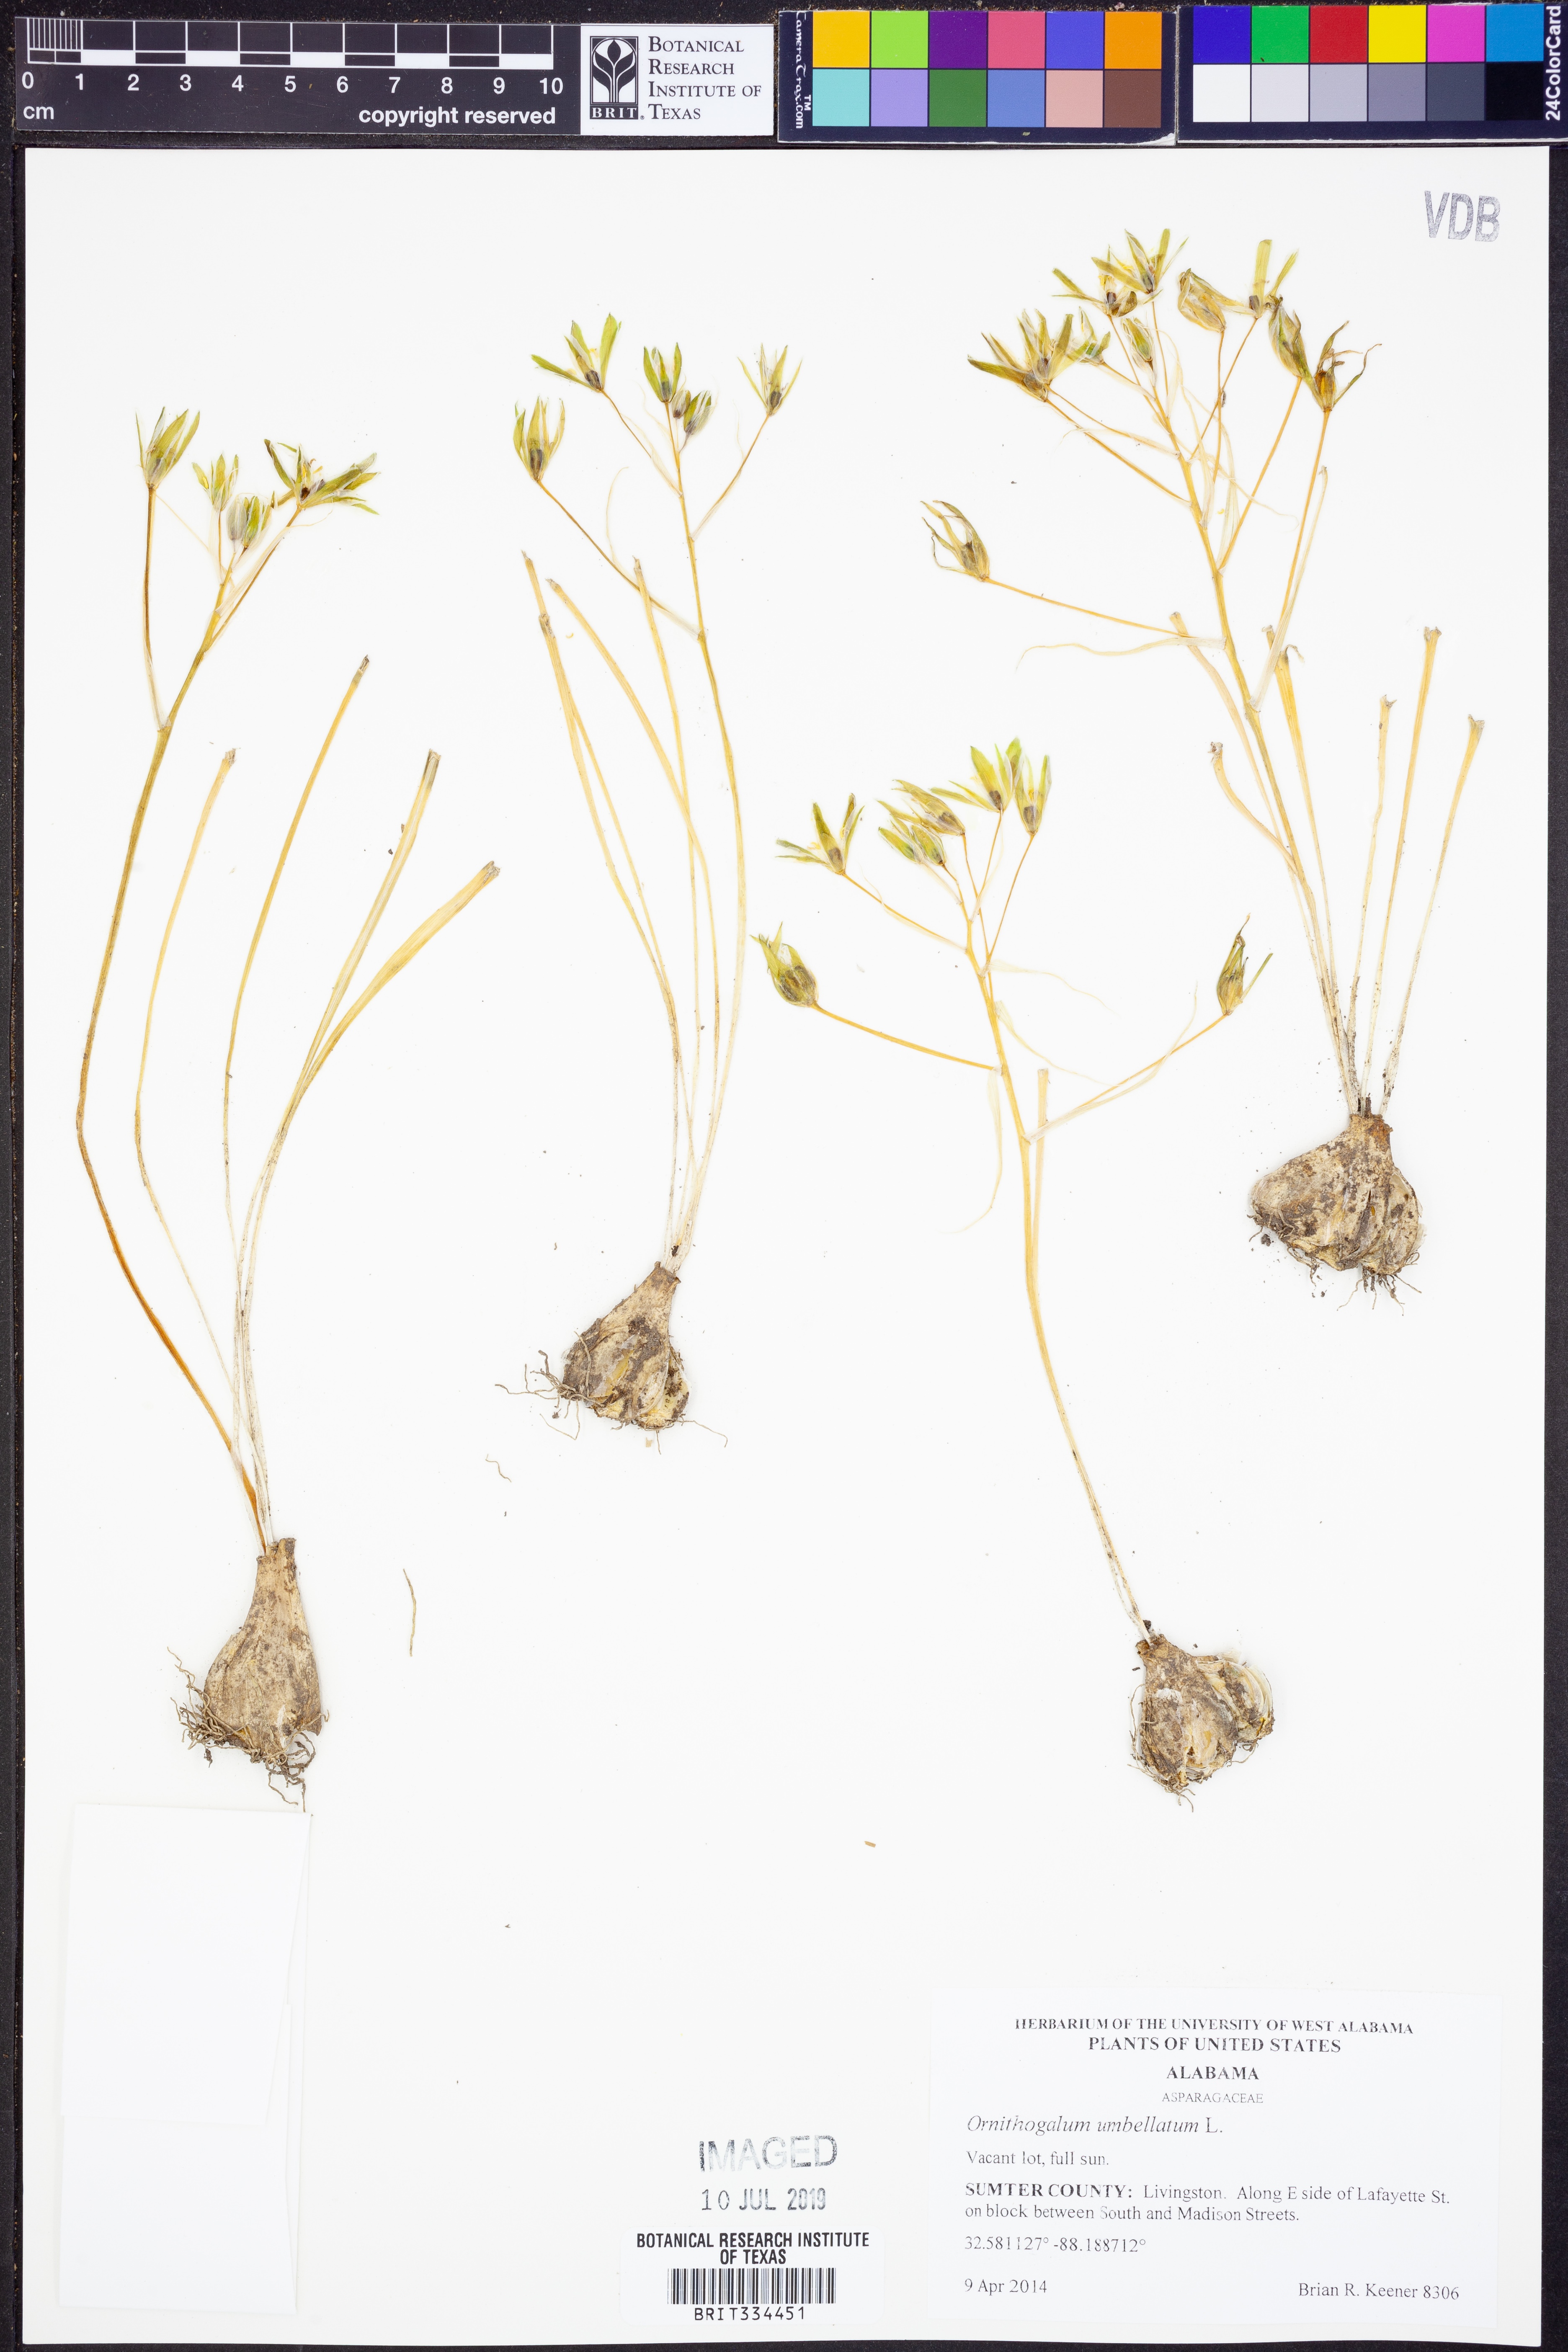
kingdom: Plantae
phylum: Tracheophyta
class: Liliopsida
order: Asparagales
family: Asparagaceae
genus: Ornithogalum
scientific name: Ornithogalum umbellatum
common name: Garden star-of-bethlehem
